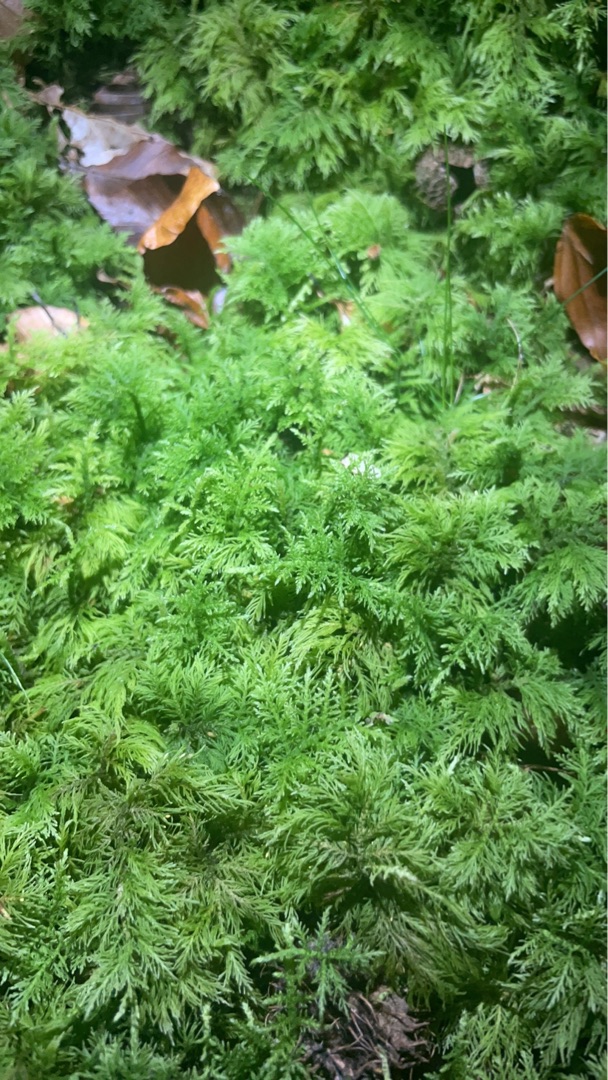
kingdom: Plantae
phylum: Bryophyta
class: Bryopsida
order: Hypnales
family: Thuidiaceae
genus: Thuidium
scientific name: Thuidium tamariscinum
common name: Pryd-bregnemos
